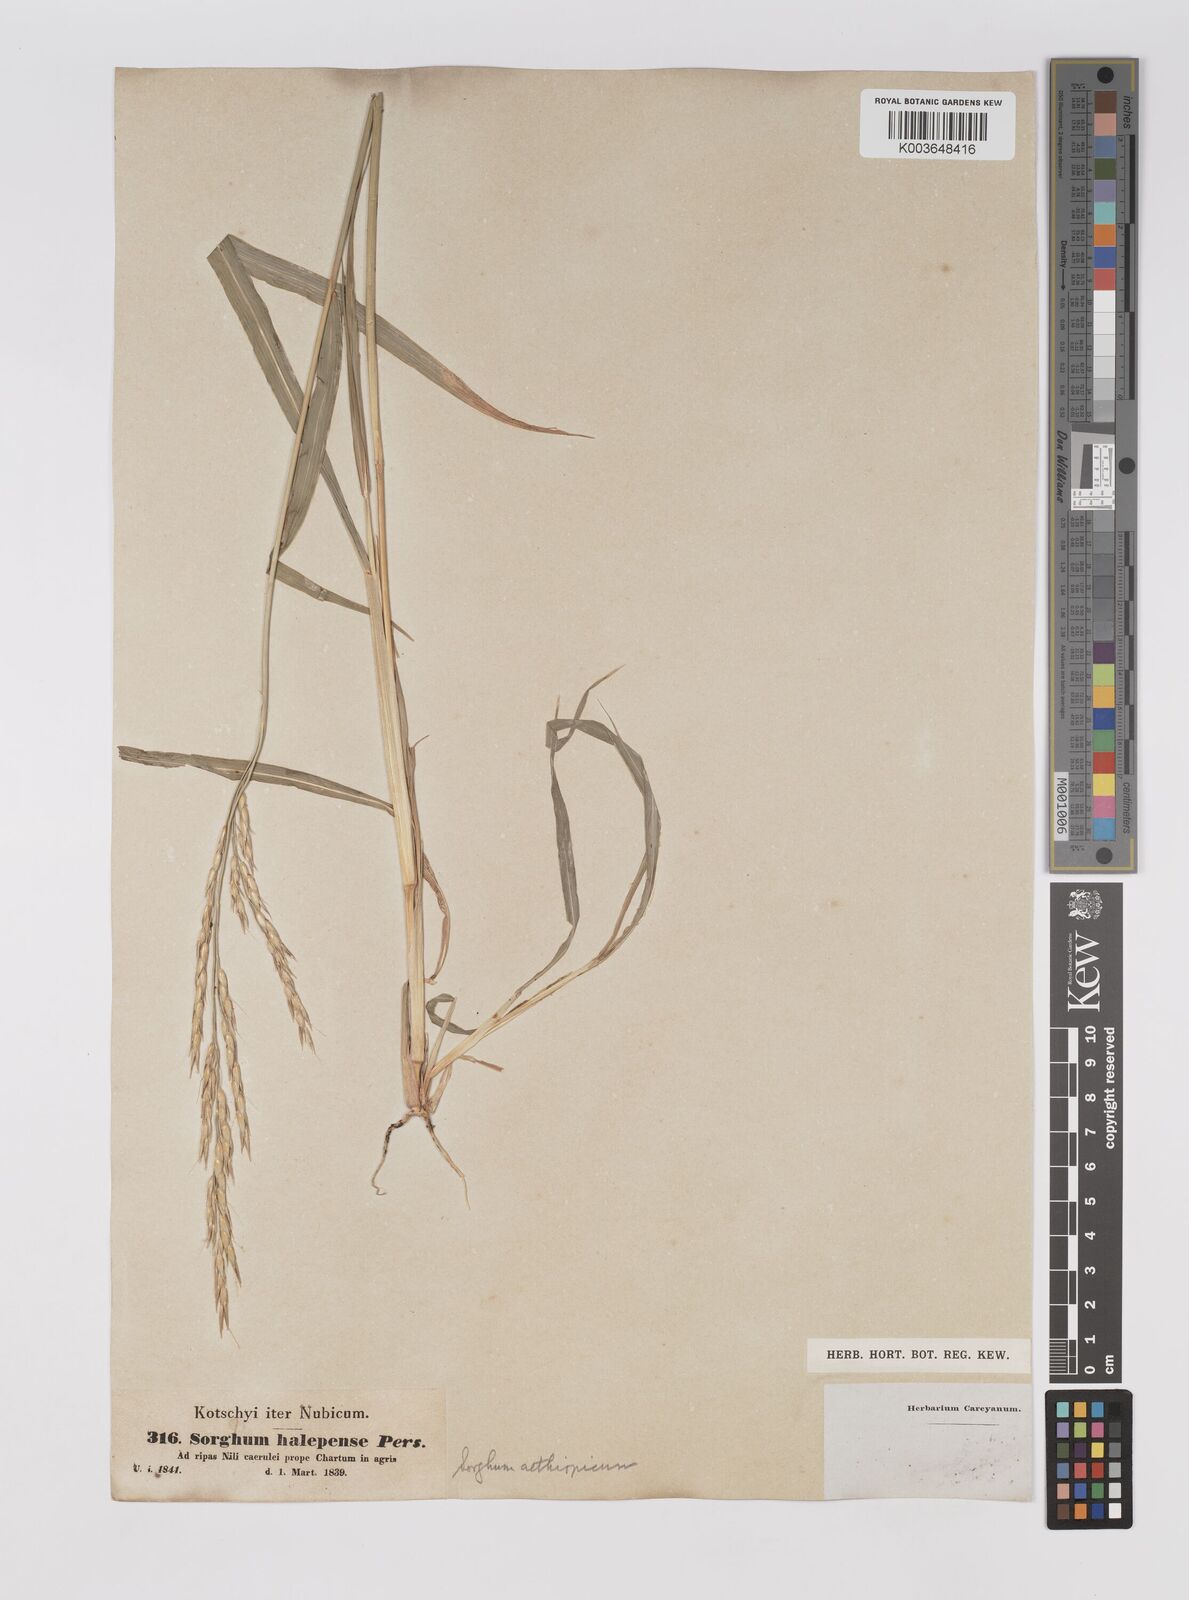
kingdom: Plantae
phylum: Tracheophyta
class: Liliopsida
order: Poales
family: Poaceae
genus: Sorghum
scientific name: Sorghum arundinaceum
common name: Sorghum
